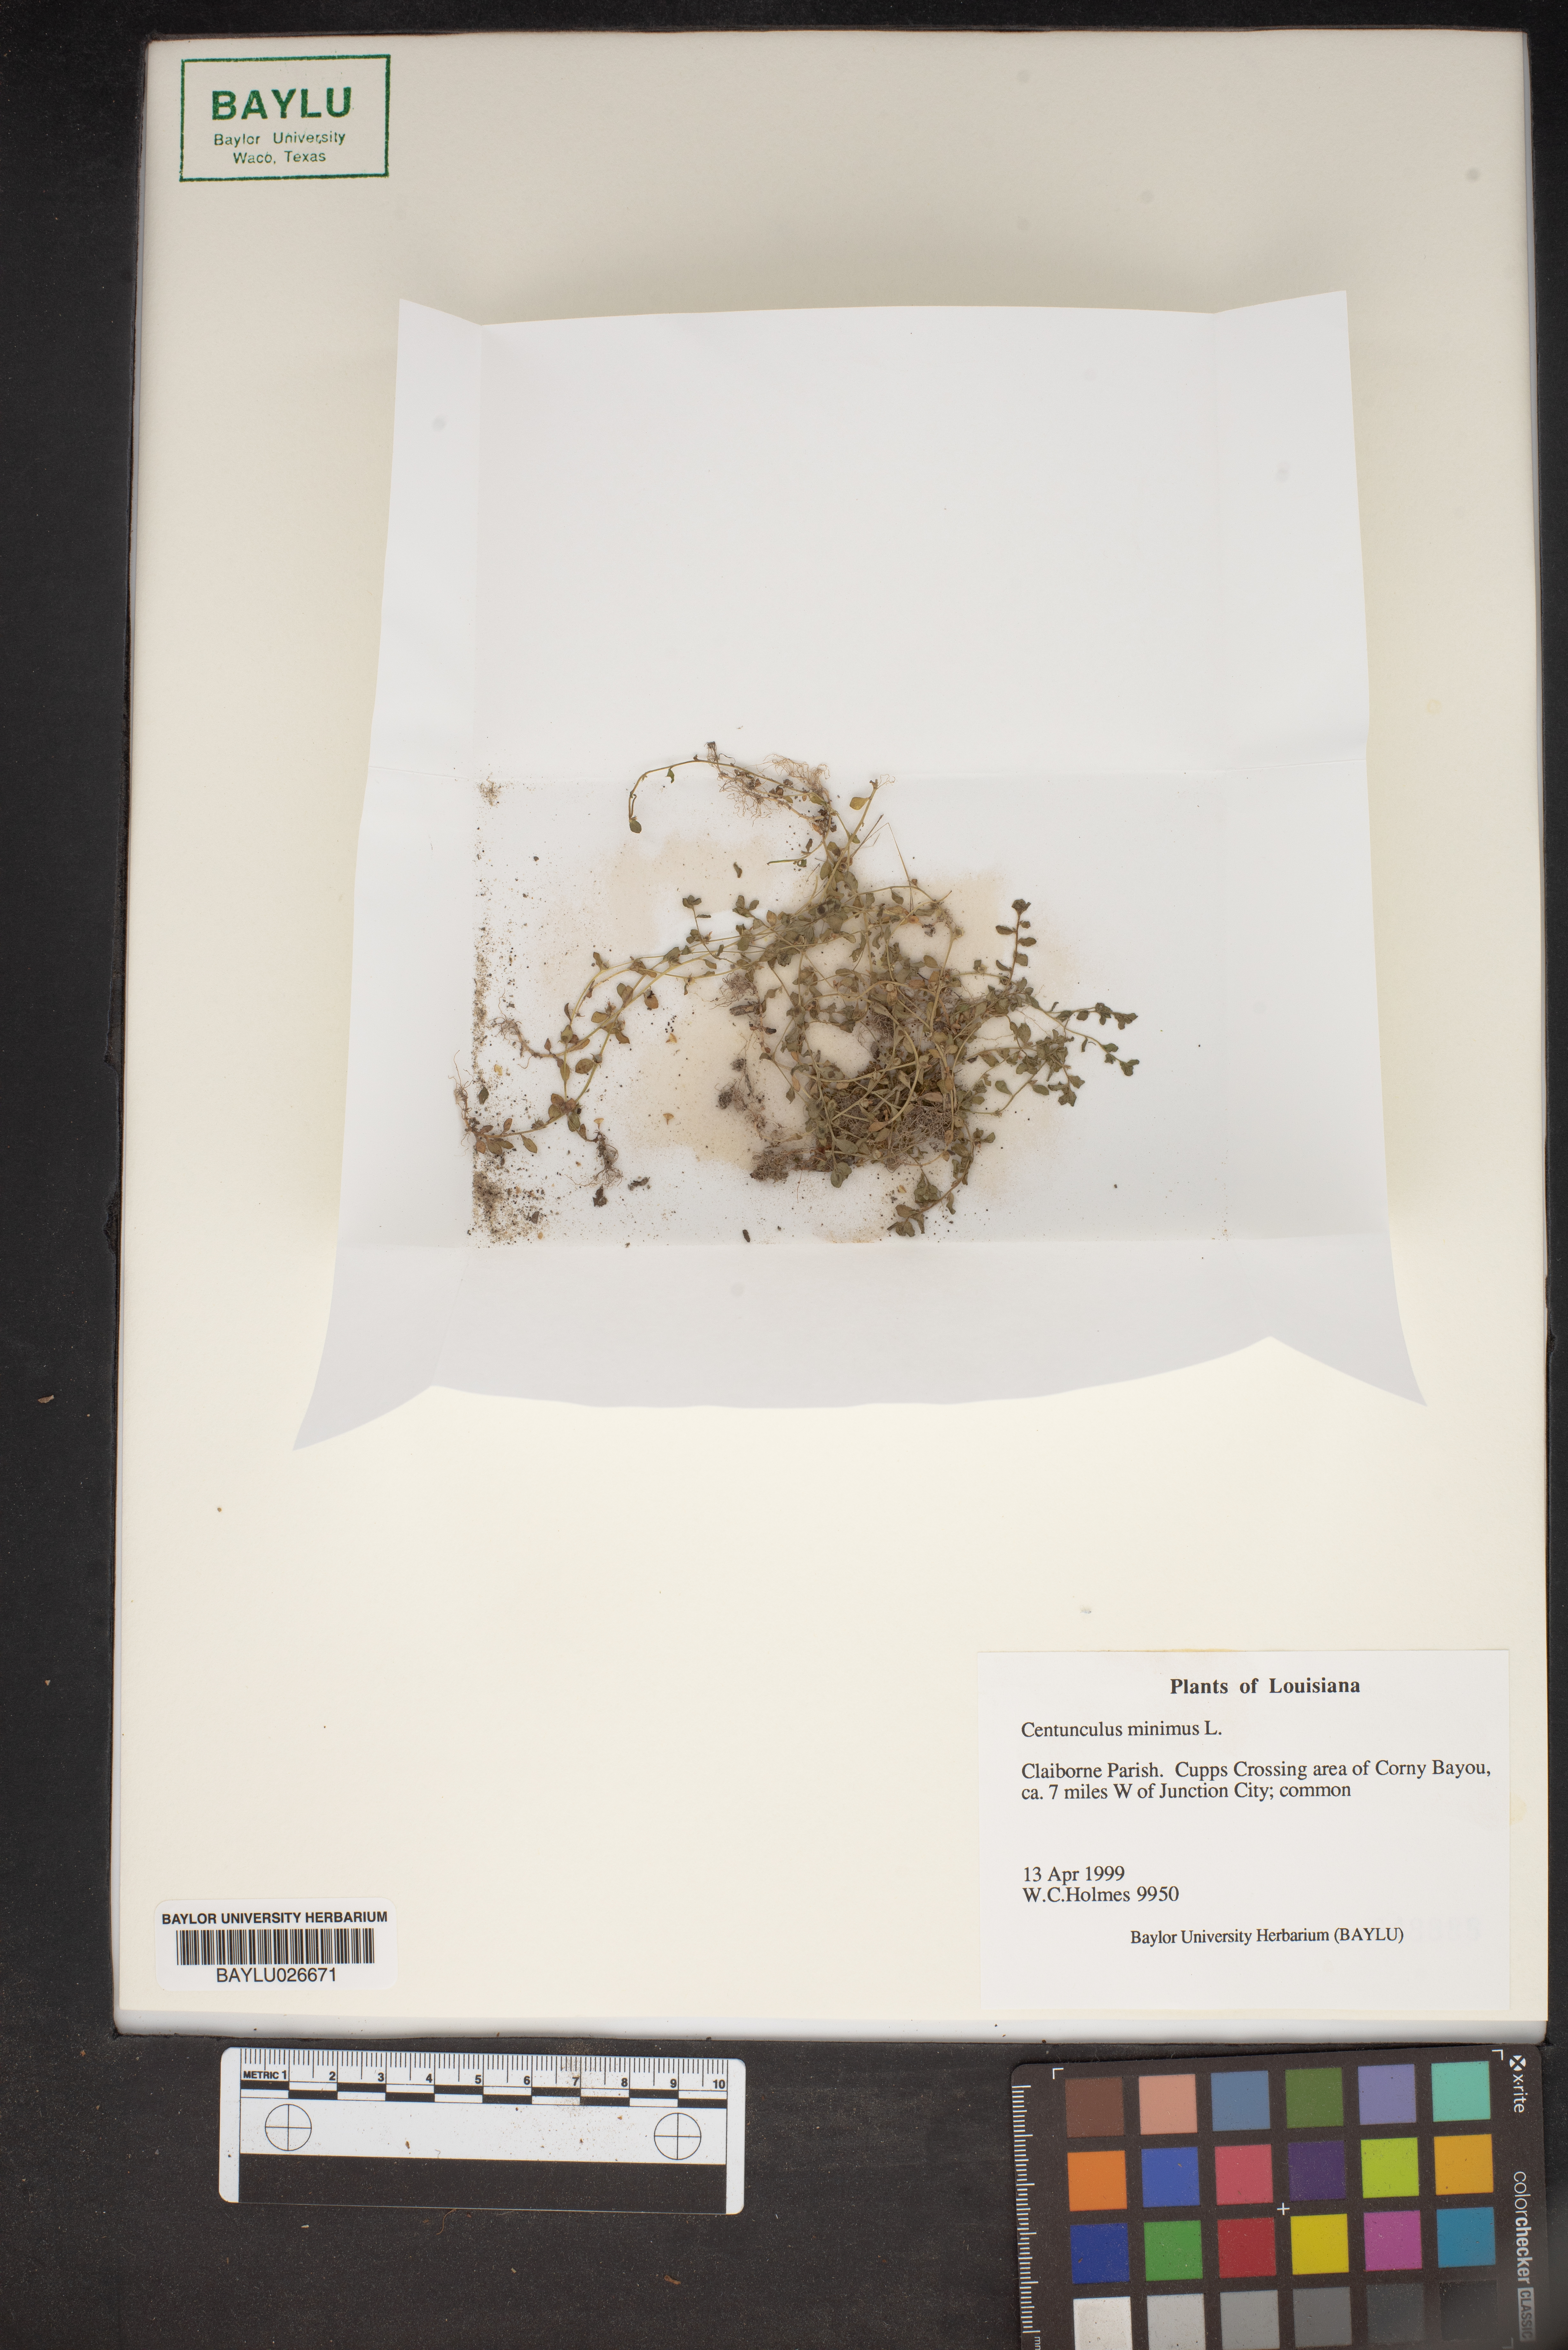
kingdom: Plantae
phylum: Tracheophyta
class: Magnoliopsida
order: Ericales
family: Primulaceae
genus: Lysimachia
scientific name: Lysimachia minima
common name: Chaffweed
